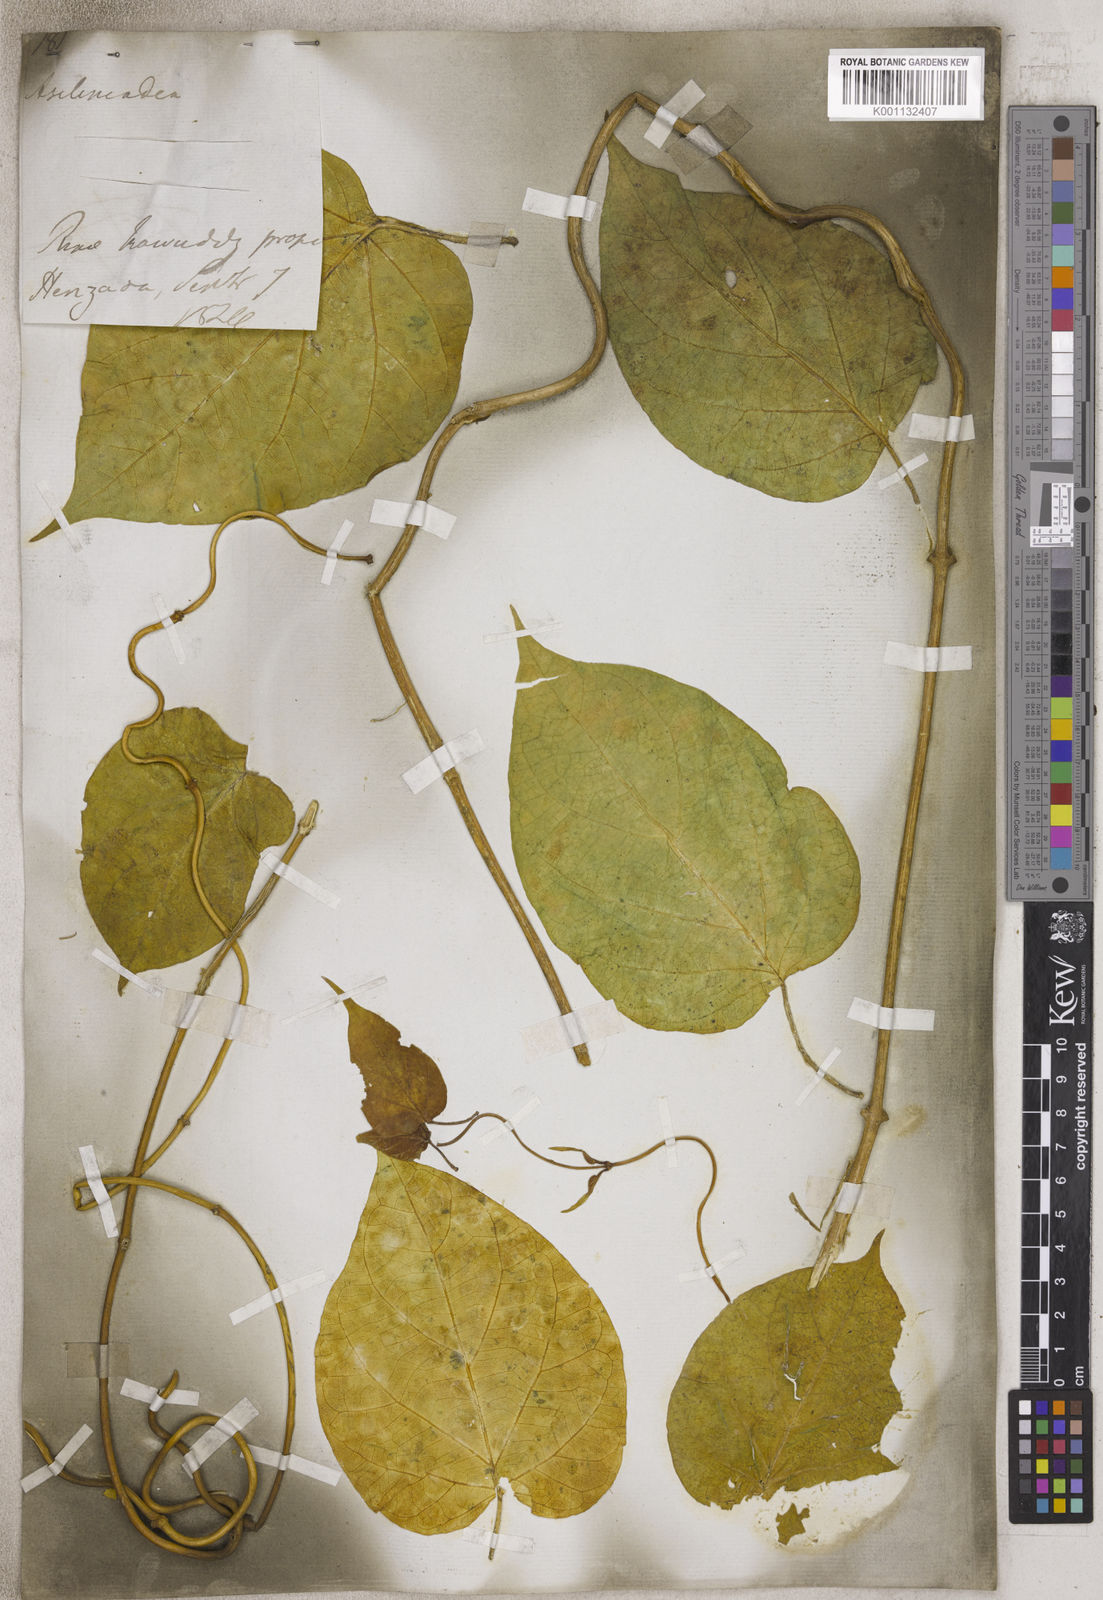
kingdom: Plantae
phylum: Tracheophyta
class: Magnoliopsida
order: Gentianales
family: Apocynaceae
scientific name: Apocynaceae
